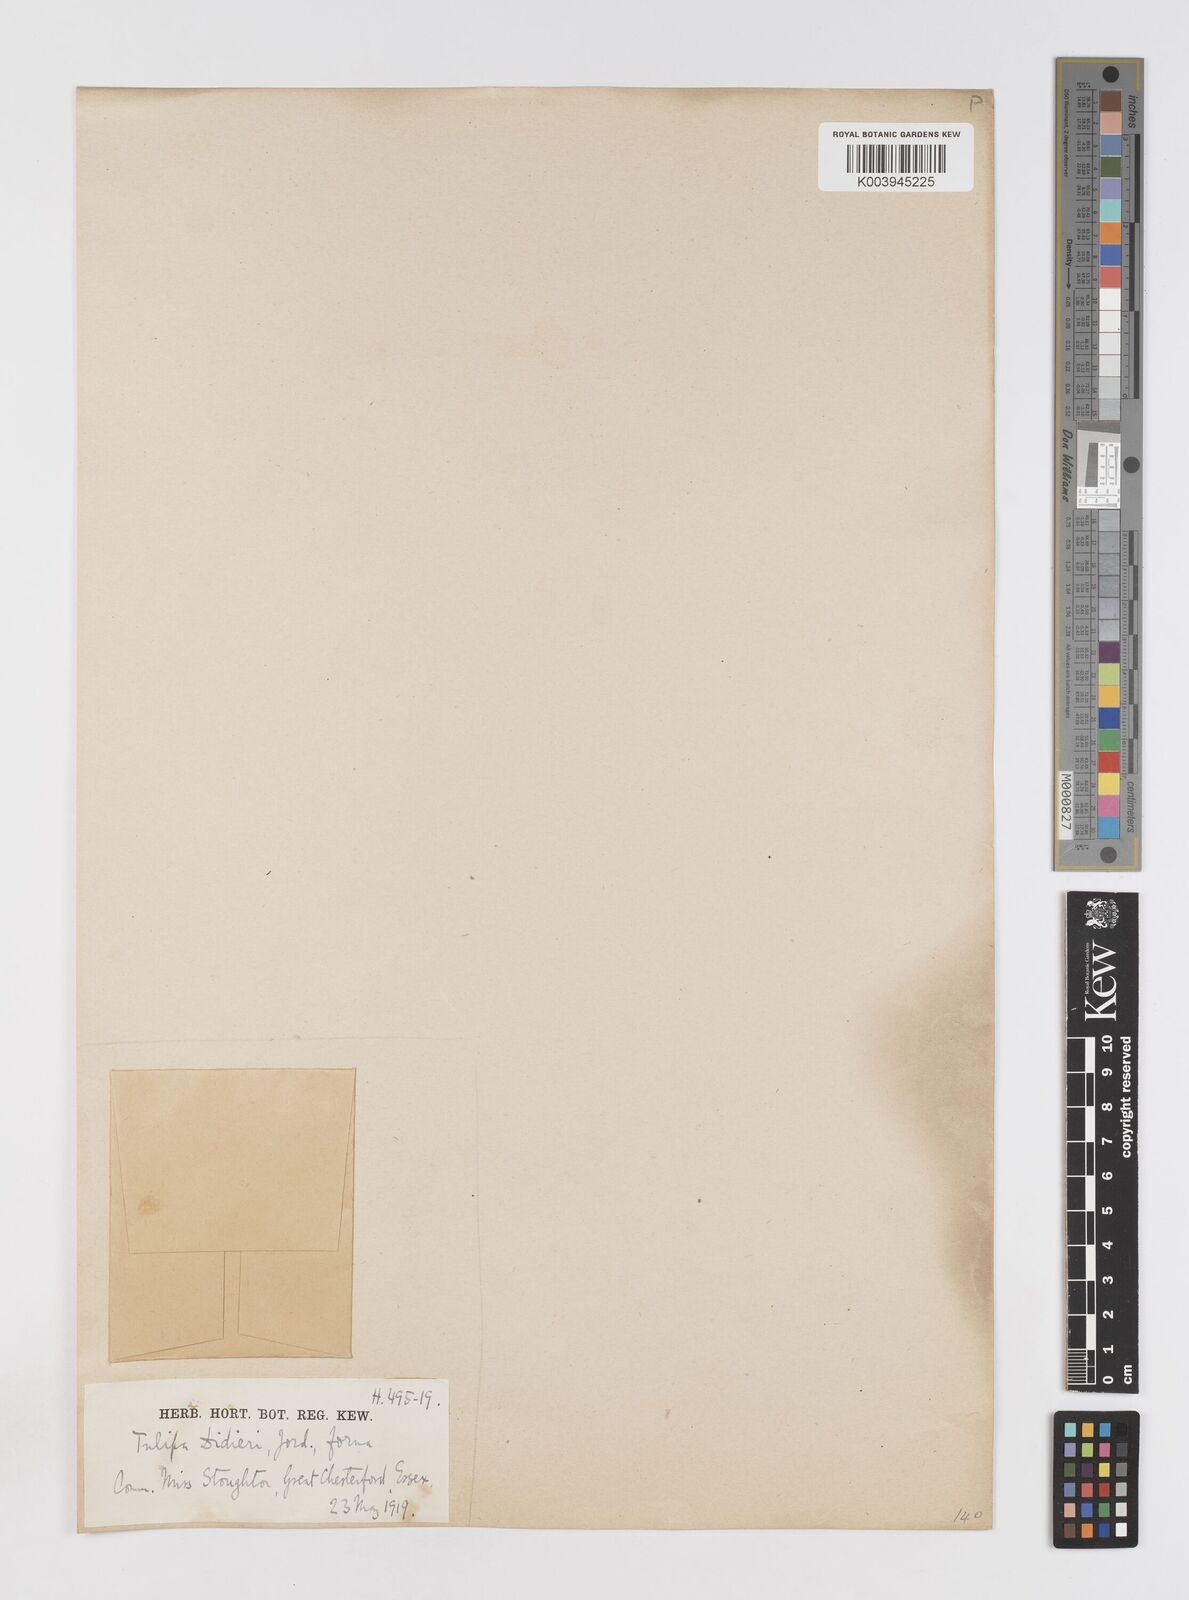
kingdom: Plantae
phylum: Tracheophyta
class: Liliopsida
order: Liliales
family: Liliaceae
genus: Tulipa
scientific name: Tulipa gesneriana
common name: Garden tulip
